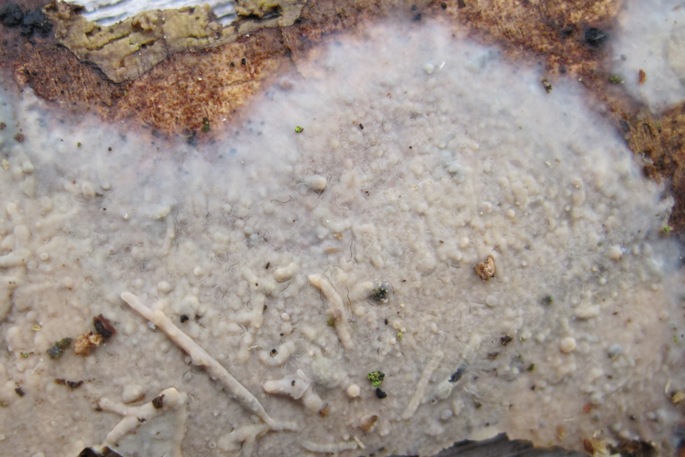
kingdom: Fungi
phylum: Basidiomycota
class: Agaricomycetes
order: Polyporales
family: Meruliaceae
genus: Cytidiella
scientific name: Cytidiella albida
